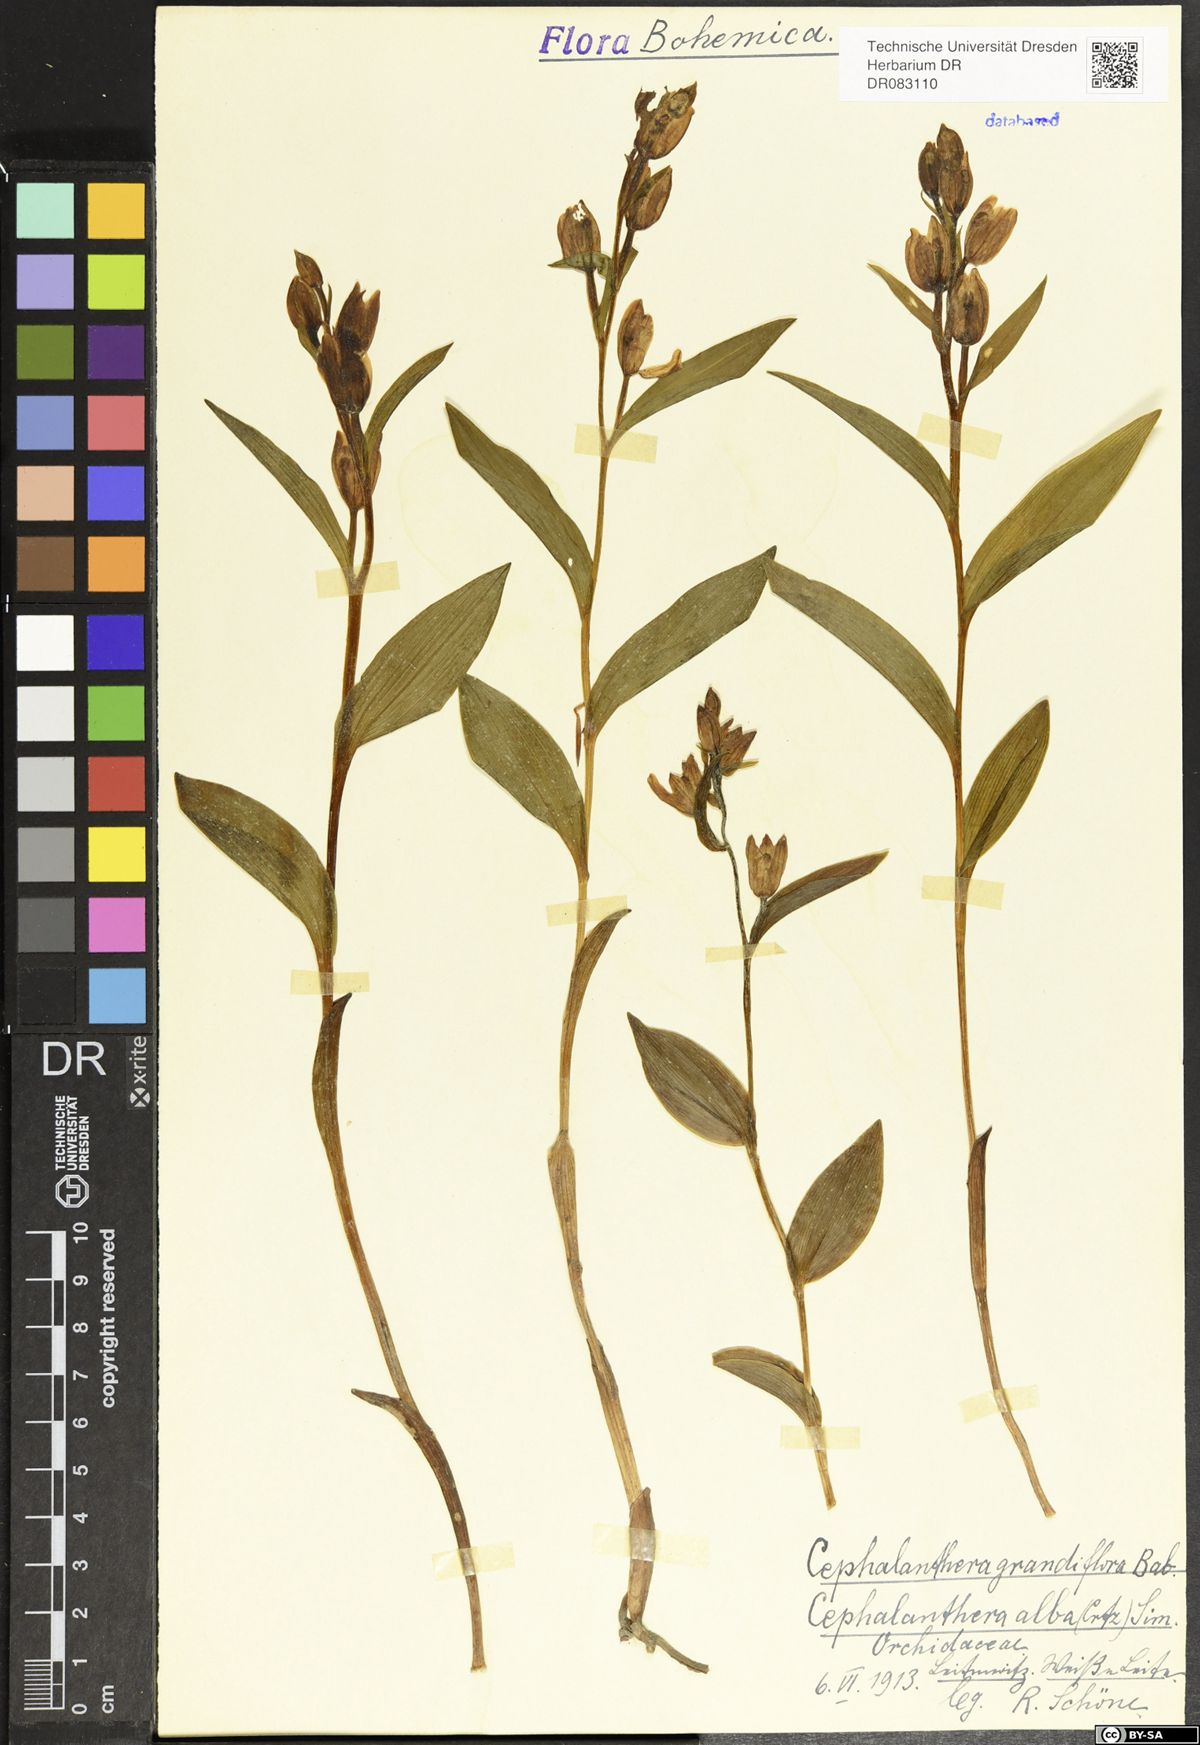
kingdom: Plantae
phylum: Tracheophyta
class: Liliopsida
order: Asparagales
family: Orchidaceae
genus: Cephalanthera
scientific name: Cephalanthera longifolia
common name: Narrow-leaved helleborine
